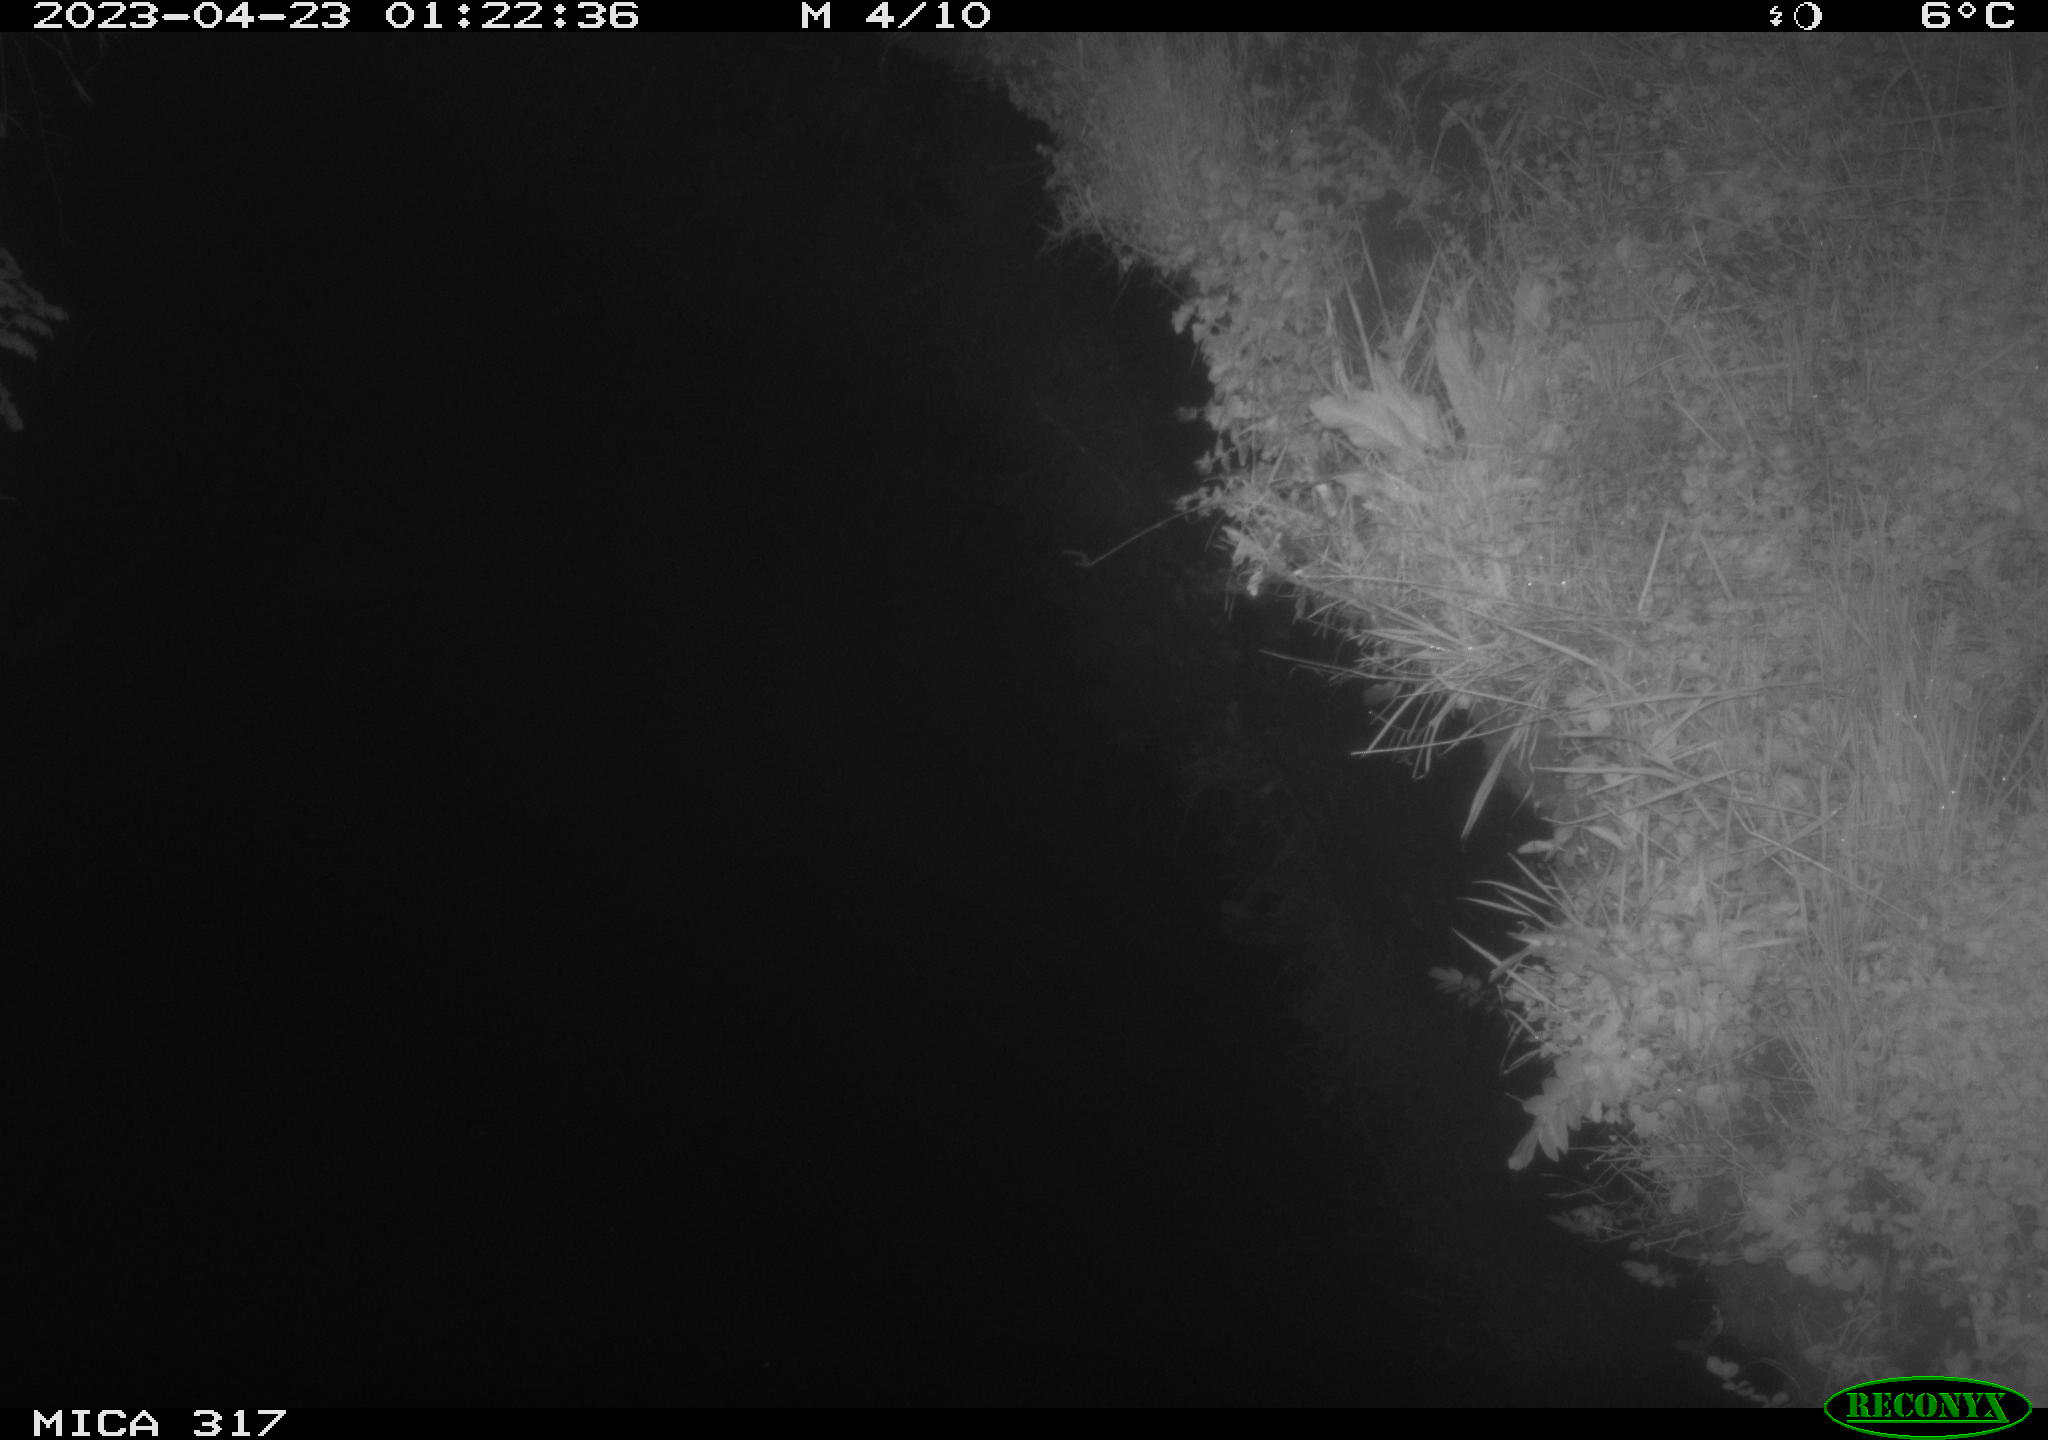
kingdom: Animalia
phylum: Chordata
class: Mammalia
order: Rodentia
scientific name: Rodentia
